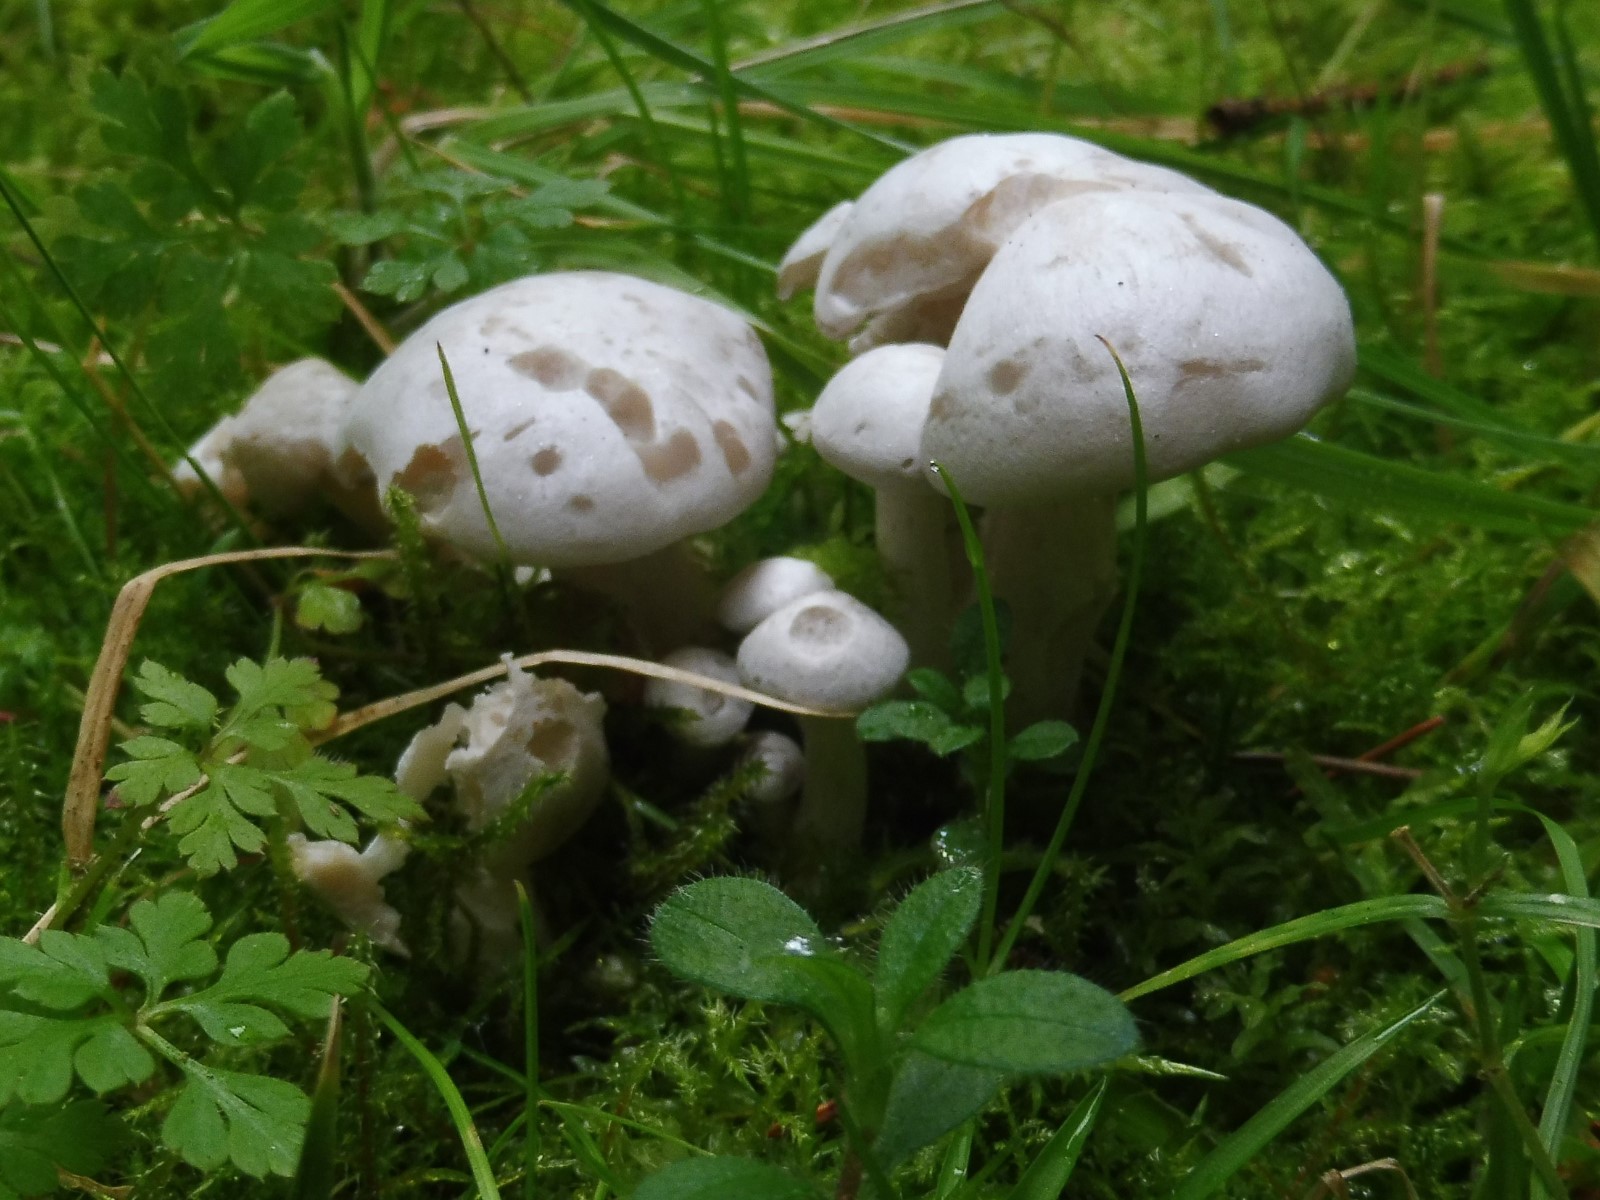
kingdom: Fungi
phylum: Basidiomycota
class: Agaricomycetes
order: Agaricales
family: Tricholomataceae
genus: Leucocybe
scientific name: Leucocybe connata
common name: knippe-tragthat
